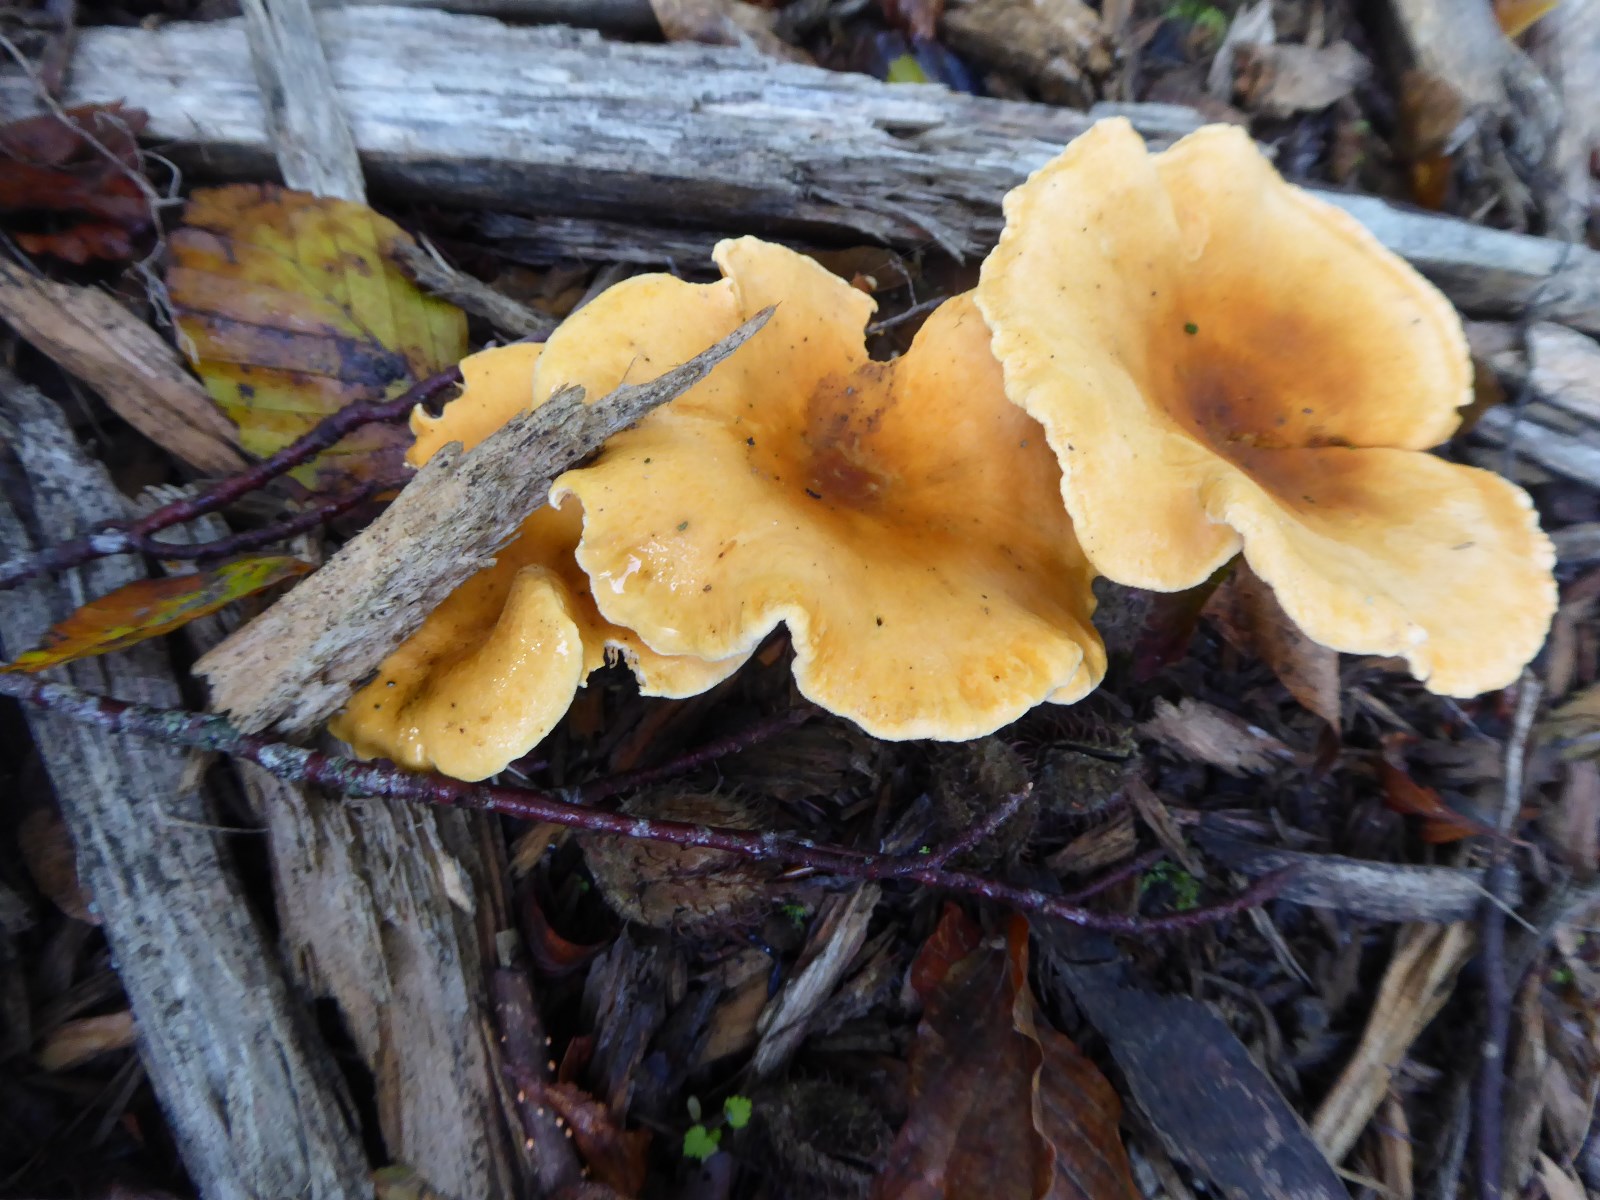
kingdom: Fungi
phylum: Basidiomycota
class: Agaricomycetes
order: Agaricales
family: Tricholomataceae
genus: Paralepista
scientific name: Paralepista flaccida
